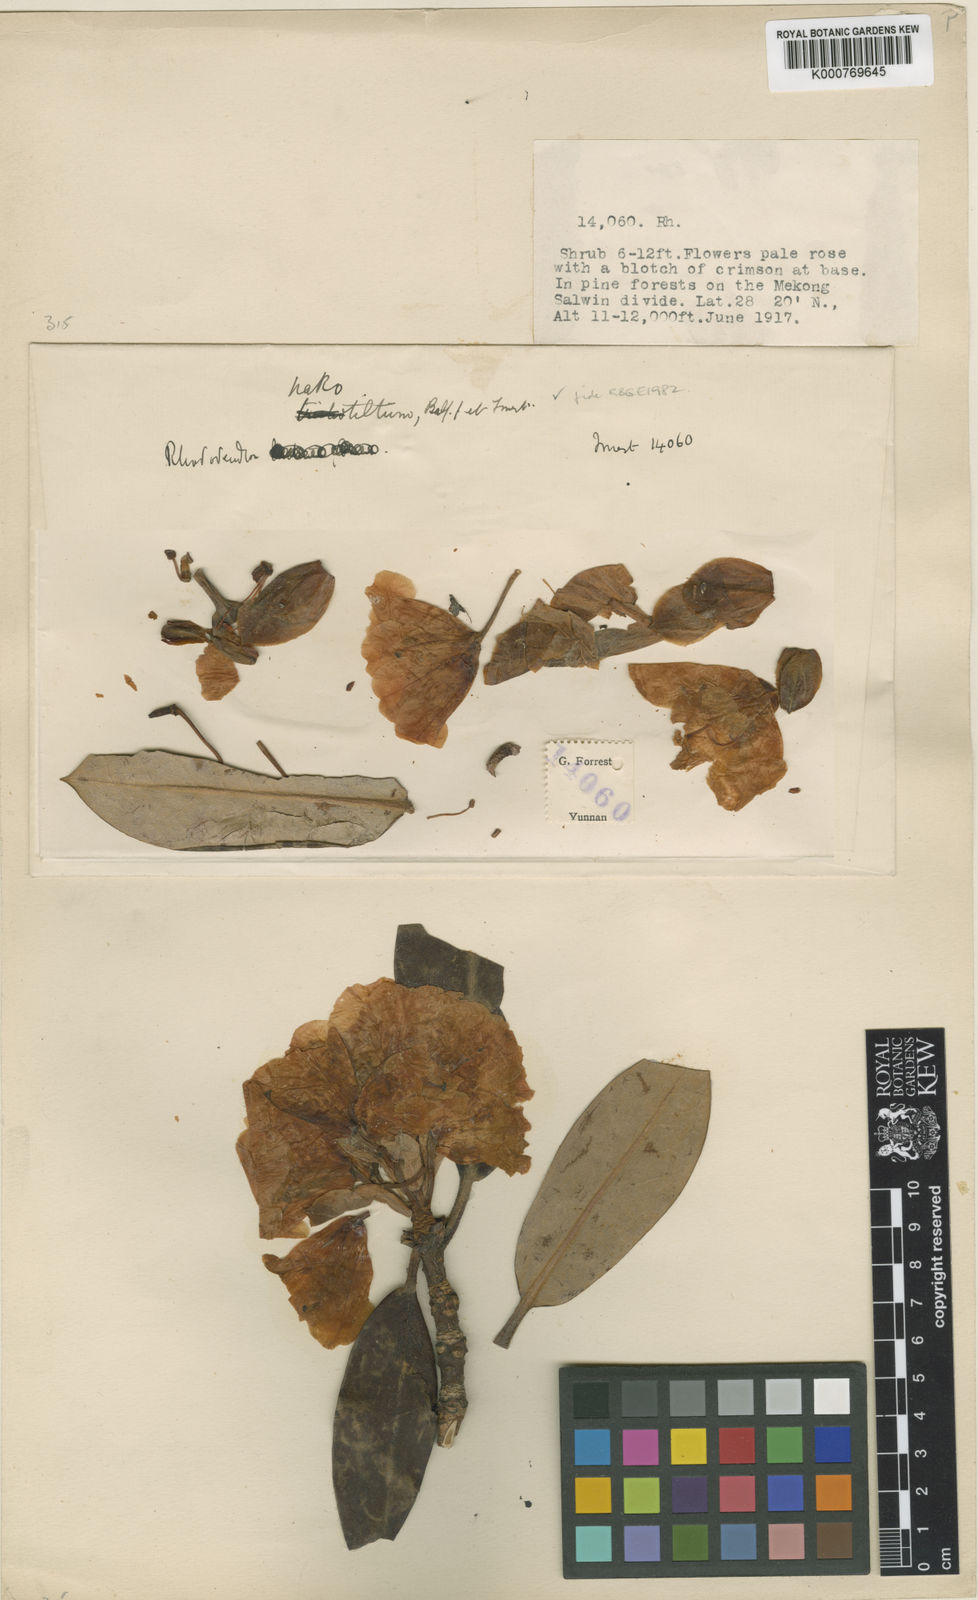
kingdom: Plantae
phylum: Tracheophyta
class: Magnoliopsida
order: Ericales
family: Ericaceae
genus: Rhododendron
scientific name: Rhododendron nakotiltum
